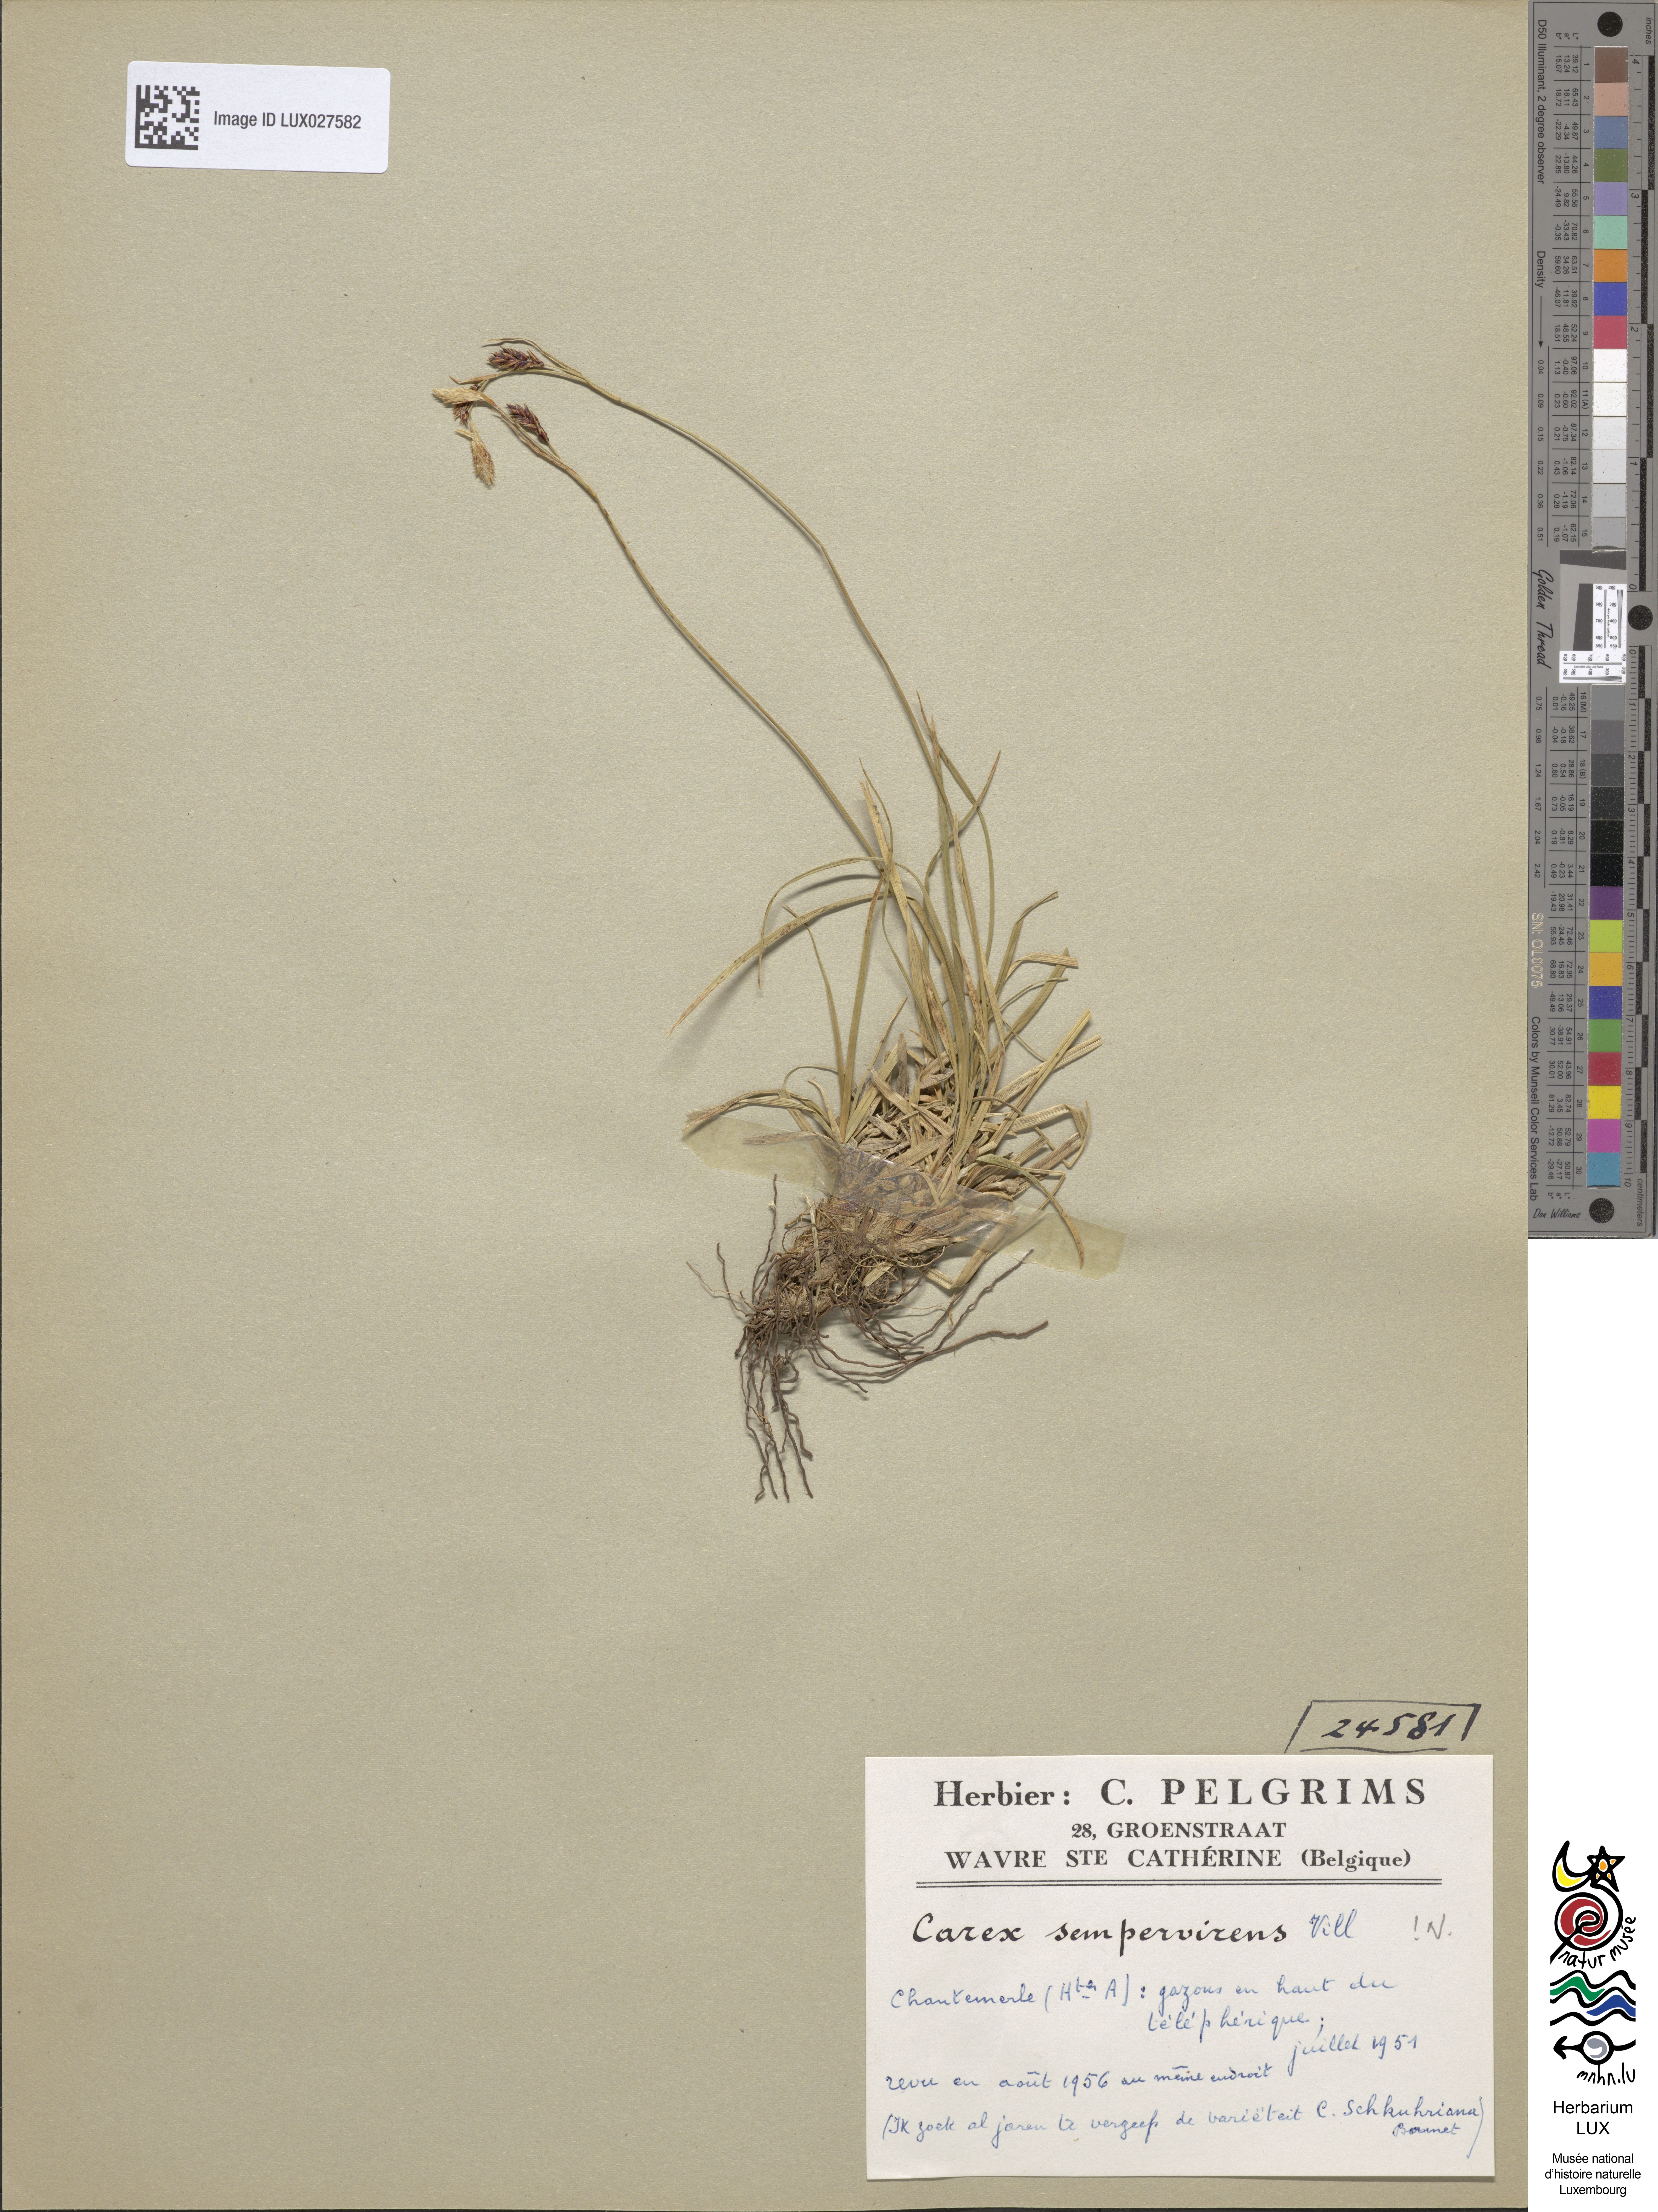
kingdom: Plantae
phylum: Tracheophyta
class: Liliopsida
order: Poales
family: Cyperaceae
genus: Carex
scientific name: Carex sempervirens
